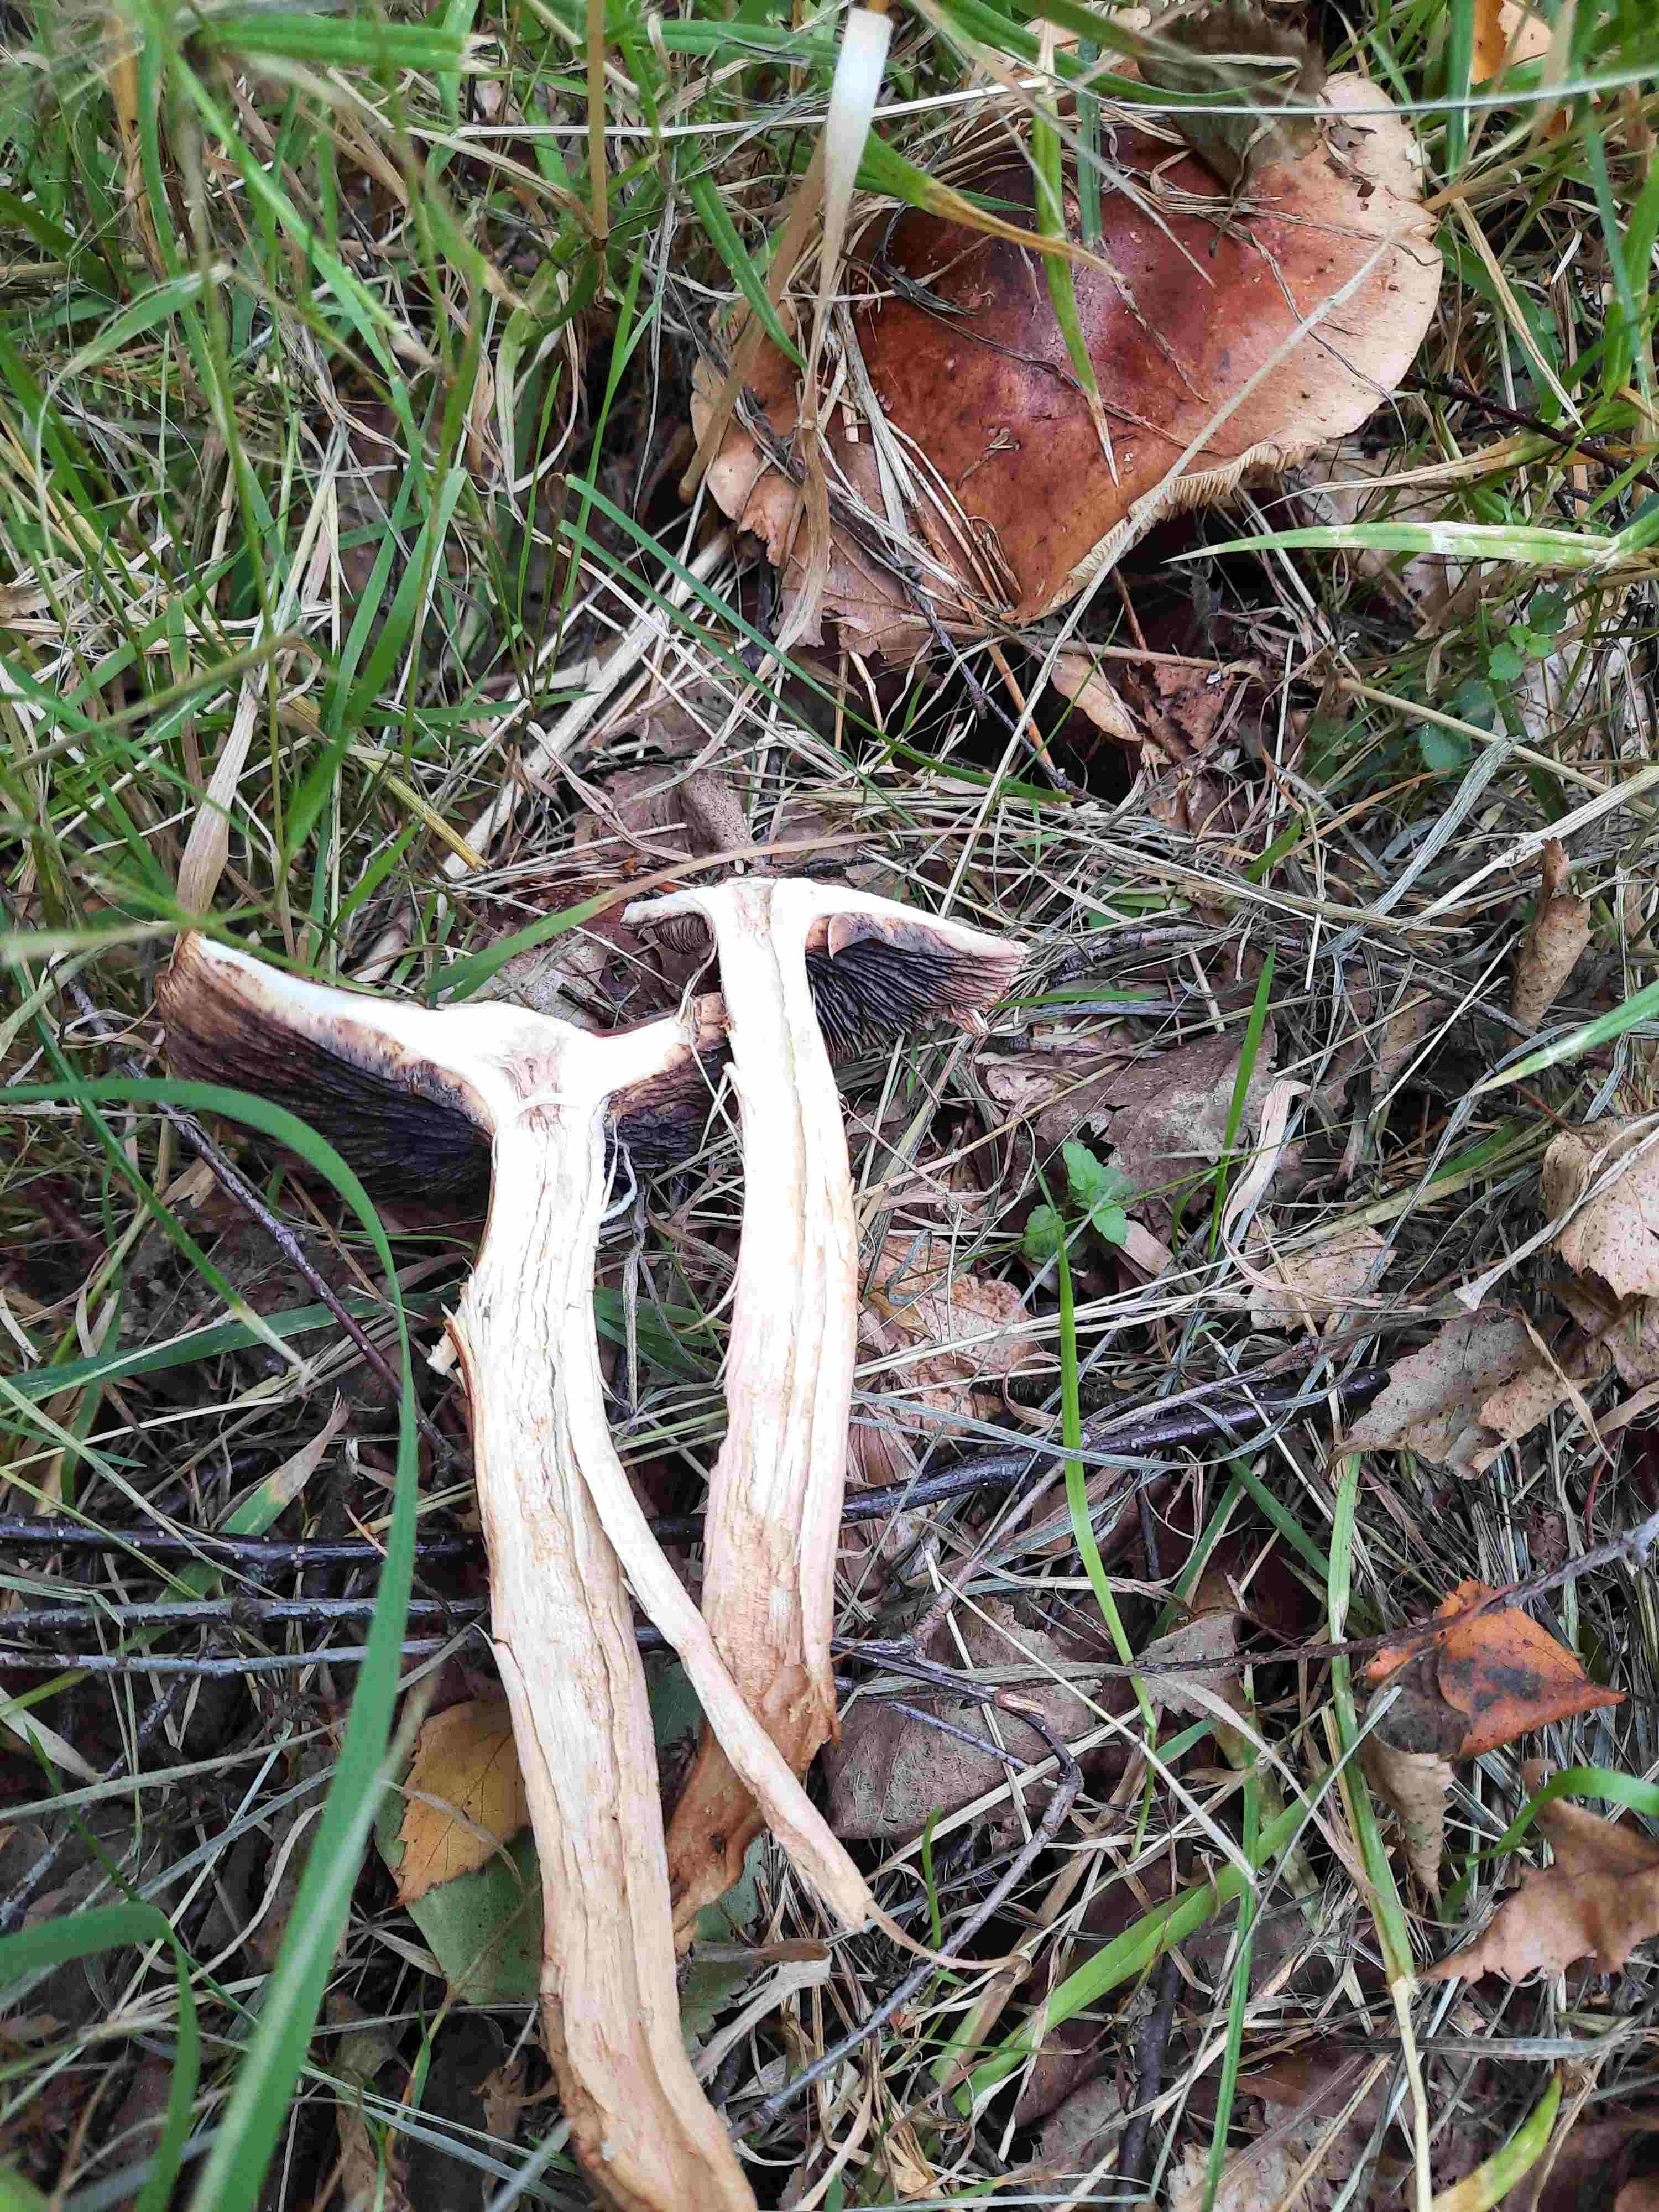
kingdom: Fungi
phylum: Basidiomycota
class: Agaricomycetes
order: Agaricales
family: Tricholomataceae
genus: Tricholoma
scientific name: Tricholoma fulvum
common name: birke-ridderhat
